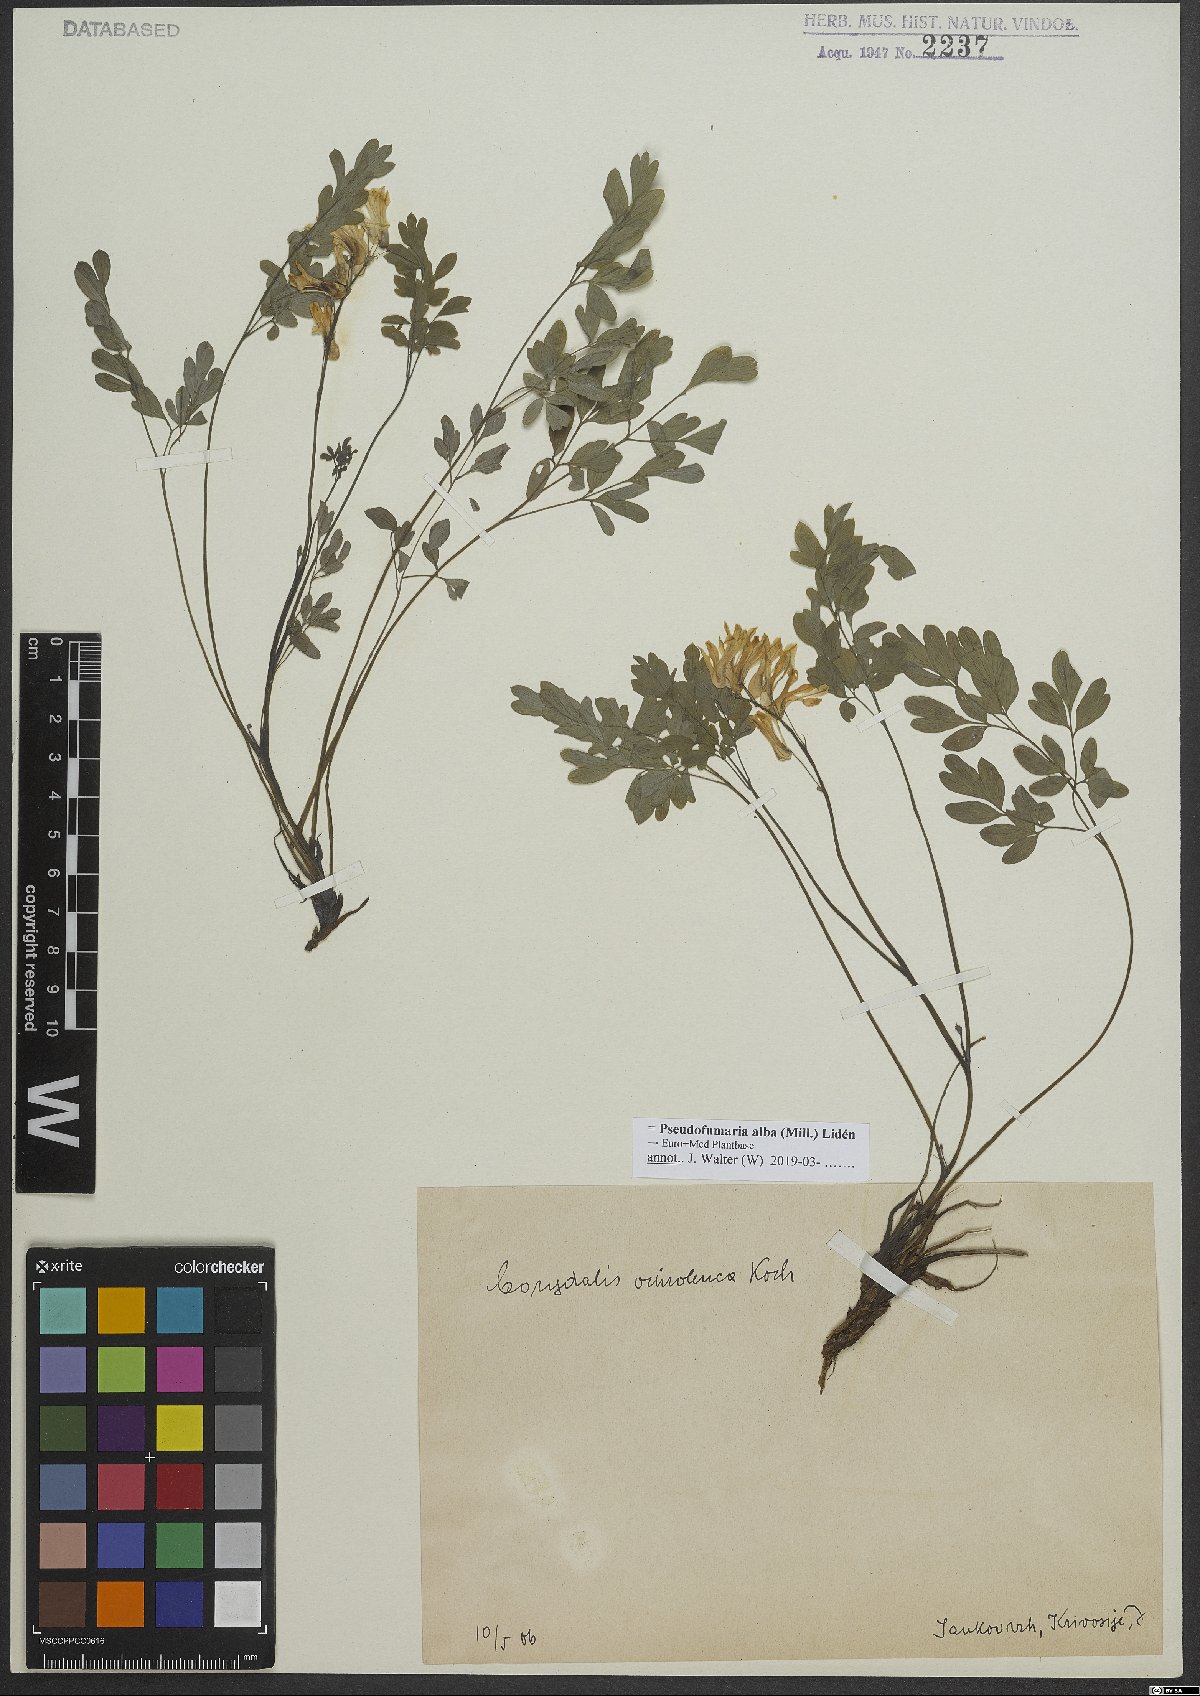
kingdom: Plantae
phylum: Tracheophyta
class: Magnoliopsida
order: Ranunculales
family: Papaveraceae
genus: Pseudofumaria
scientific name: Pseudofumaria alba
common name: Pale corydalis
